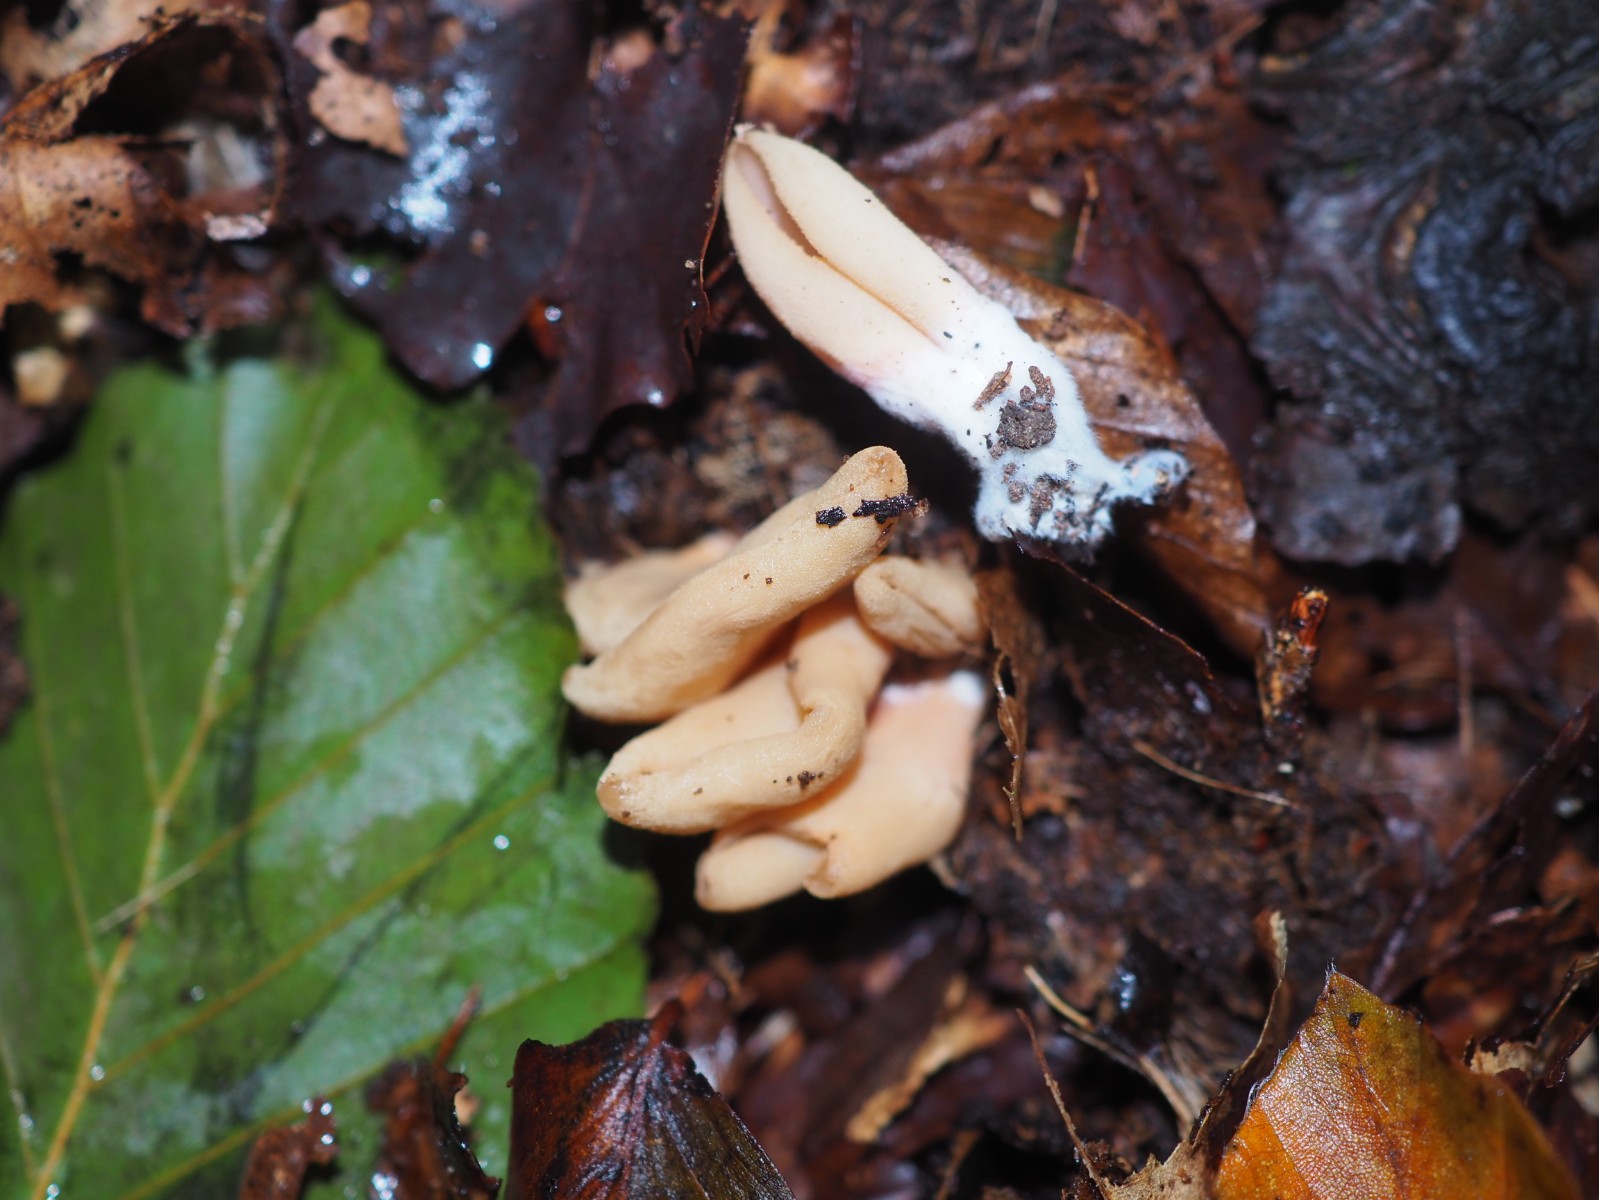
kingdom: Fungi
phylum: Ascomycota
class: Pezizomycetes
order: Pezizales
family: Otideaceae
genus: Otidea
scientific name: Otidea
